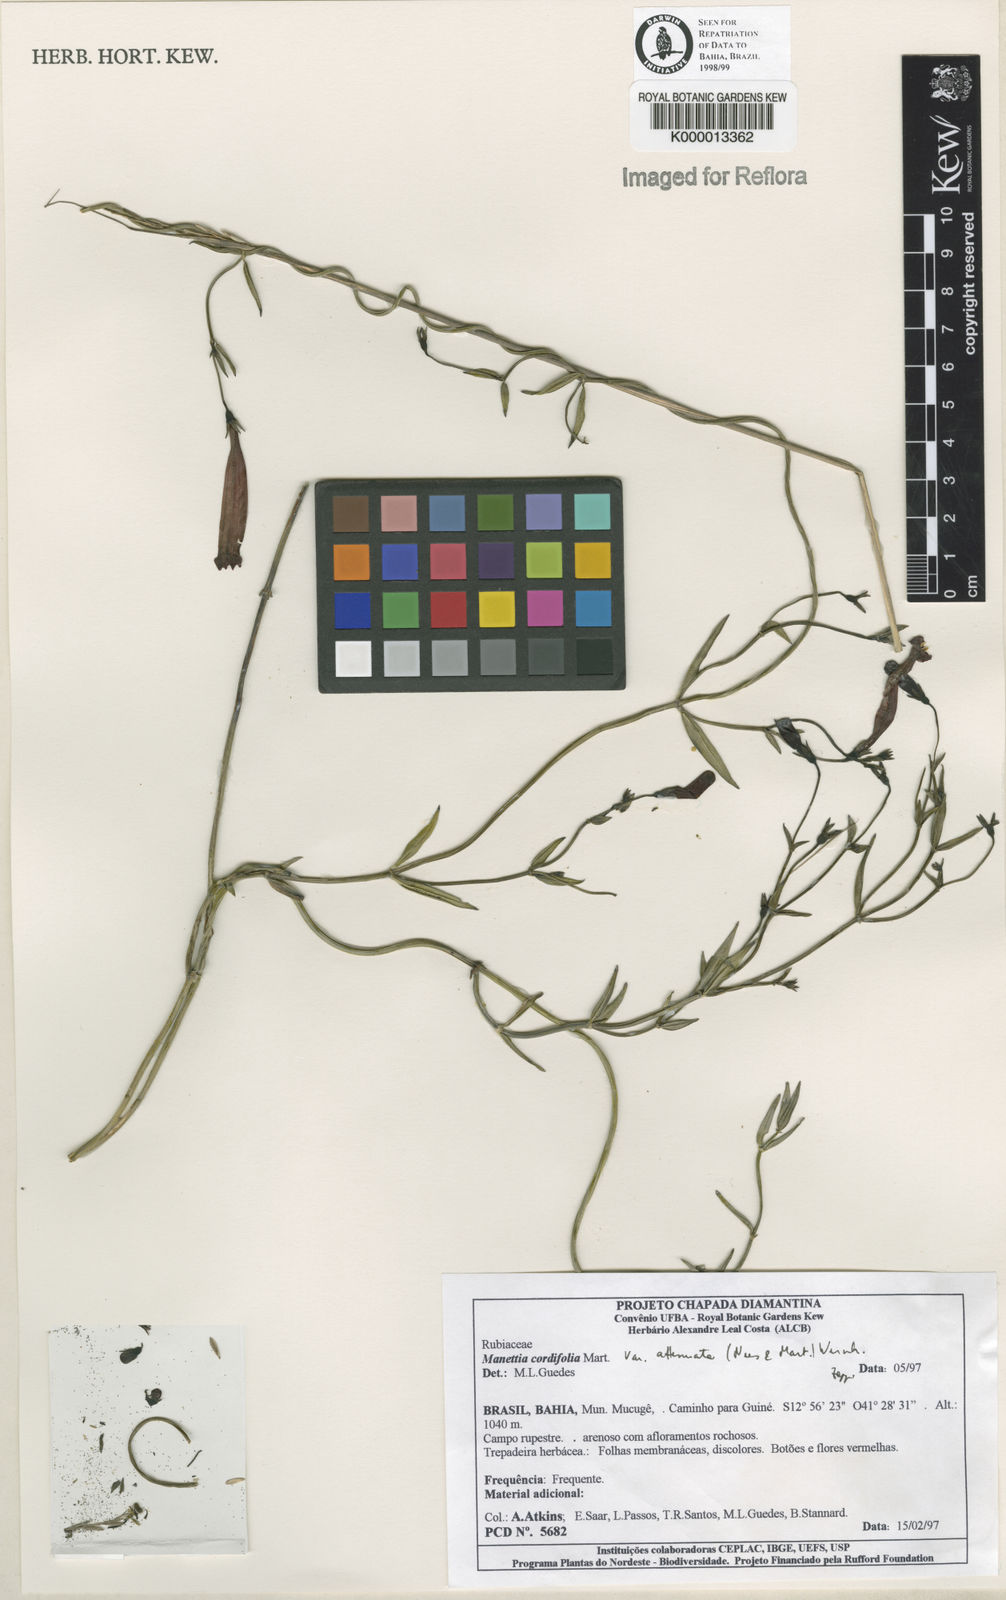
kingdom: Plantae
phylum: Tracheophyta
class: Magnoliopsida
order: Gentianales
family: Rubiaceae
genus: Manettia
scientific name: Manettia cordifolia
